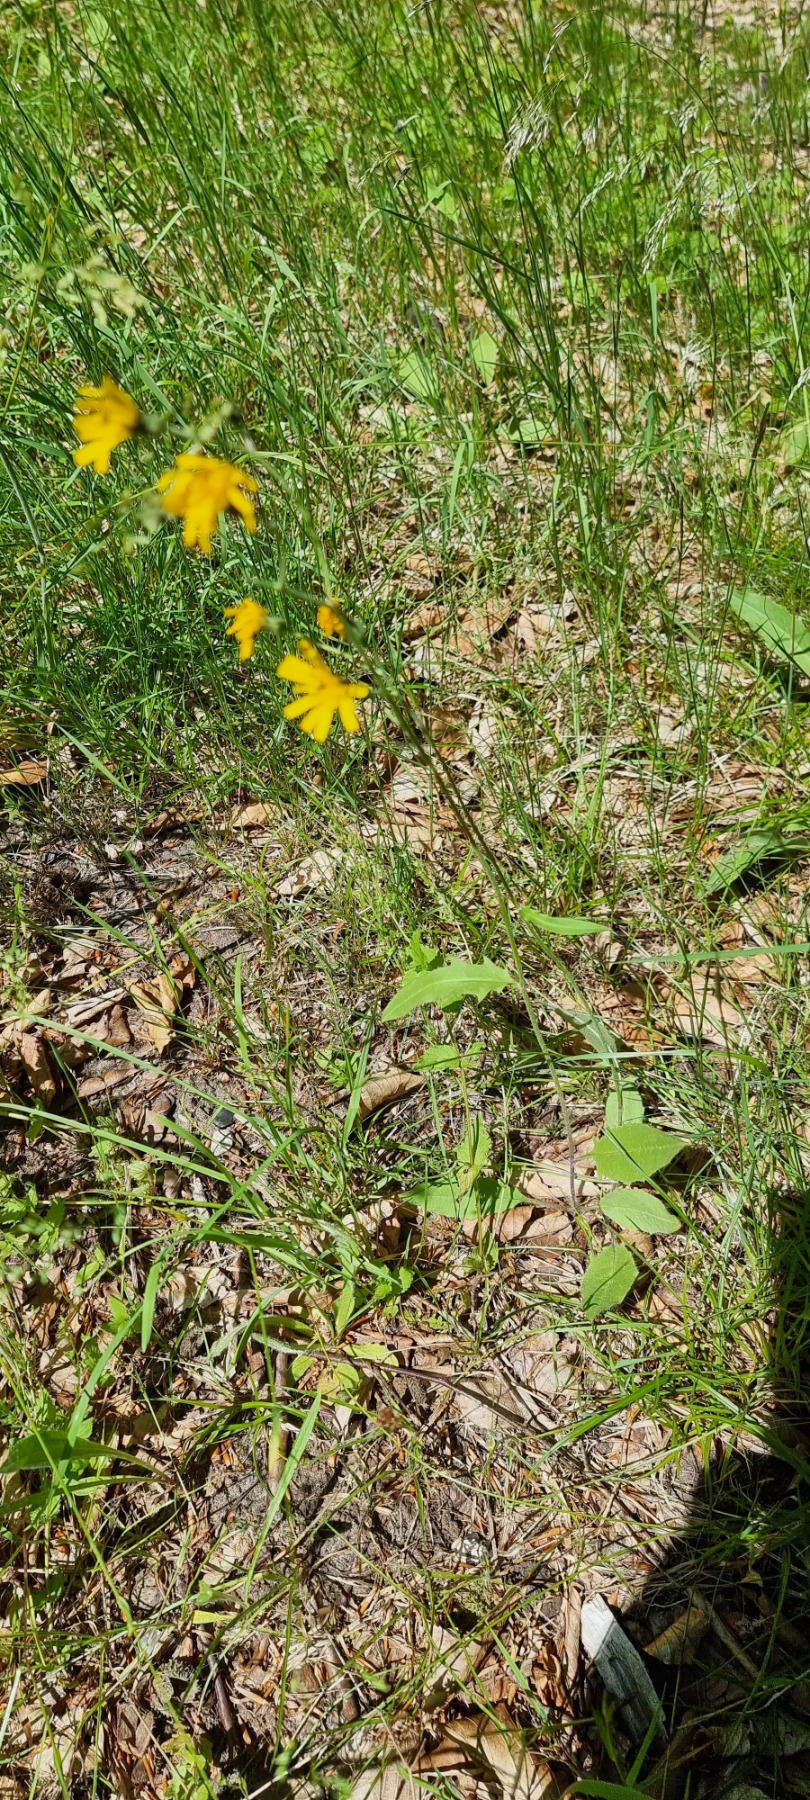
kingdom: Plantae
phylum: Tracheophyta
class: Magnoliopsida
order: Asterales
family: Asteraceae
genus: Hieracium
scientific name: Hieracium
